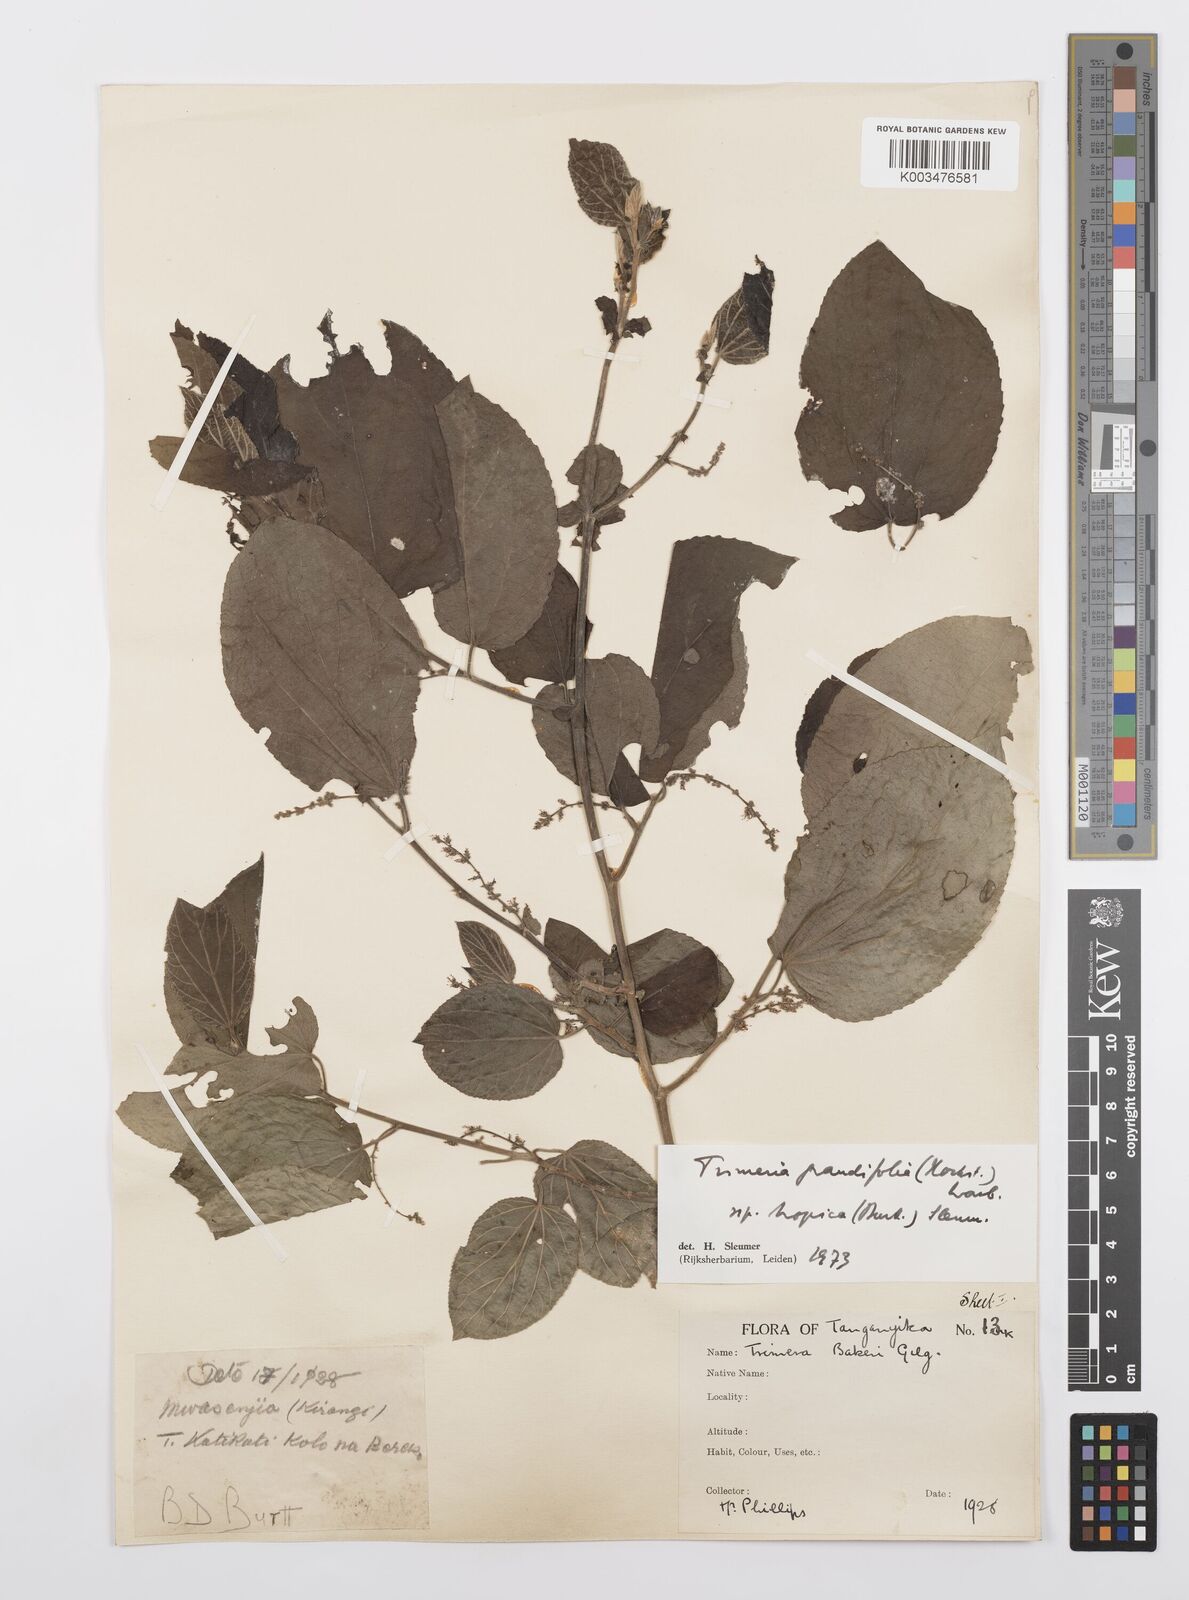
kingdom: Plantae
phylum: Tracheophyta
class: Magnoliopsida
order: Malpighiales
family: Salicaceae
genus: Trimeria
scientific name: Trimeria grandifolia
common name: Wild mulberry
